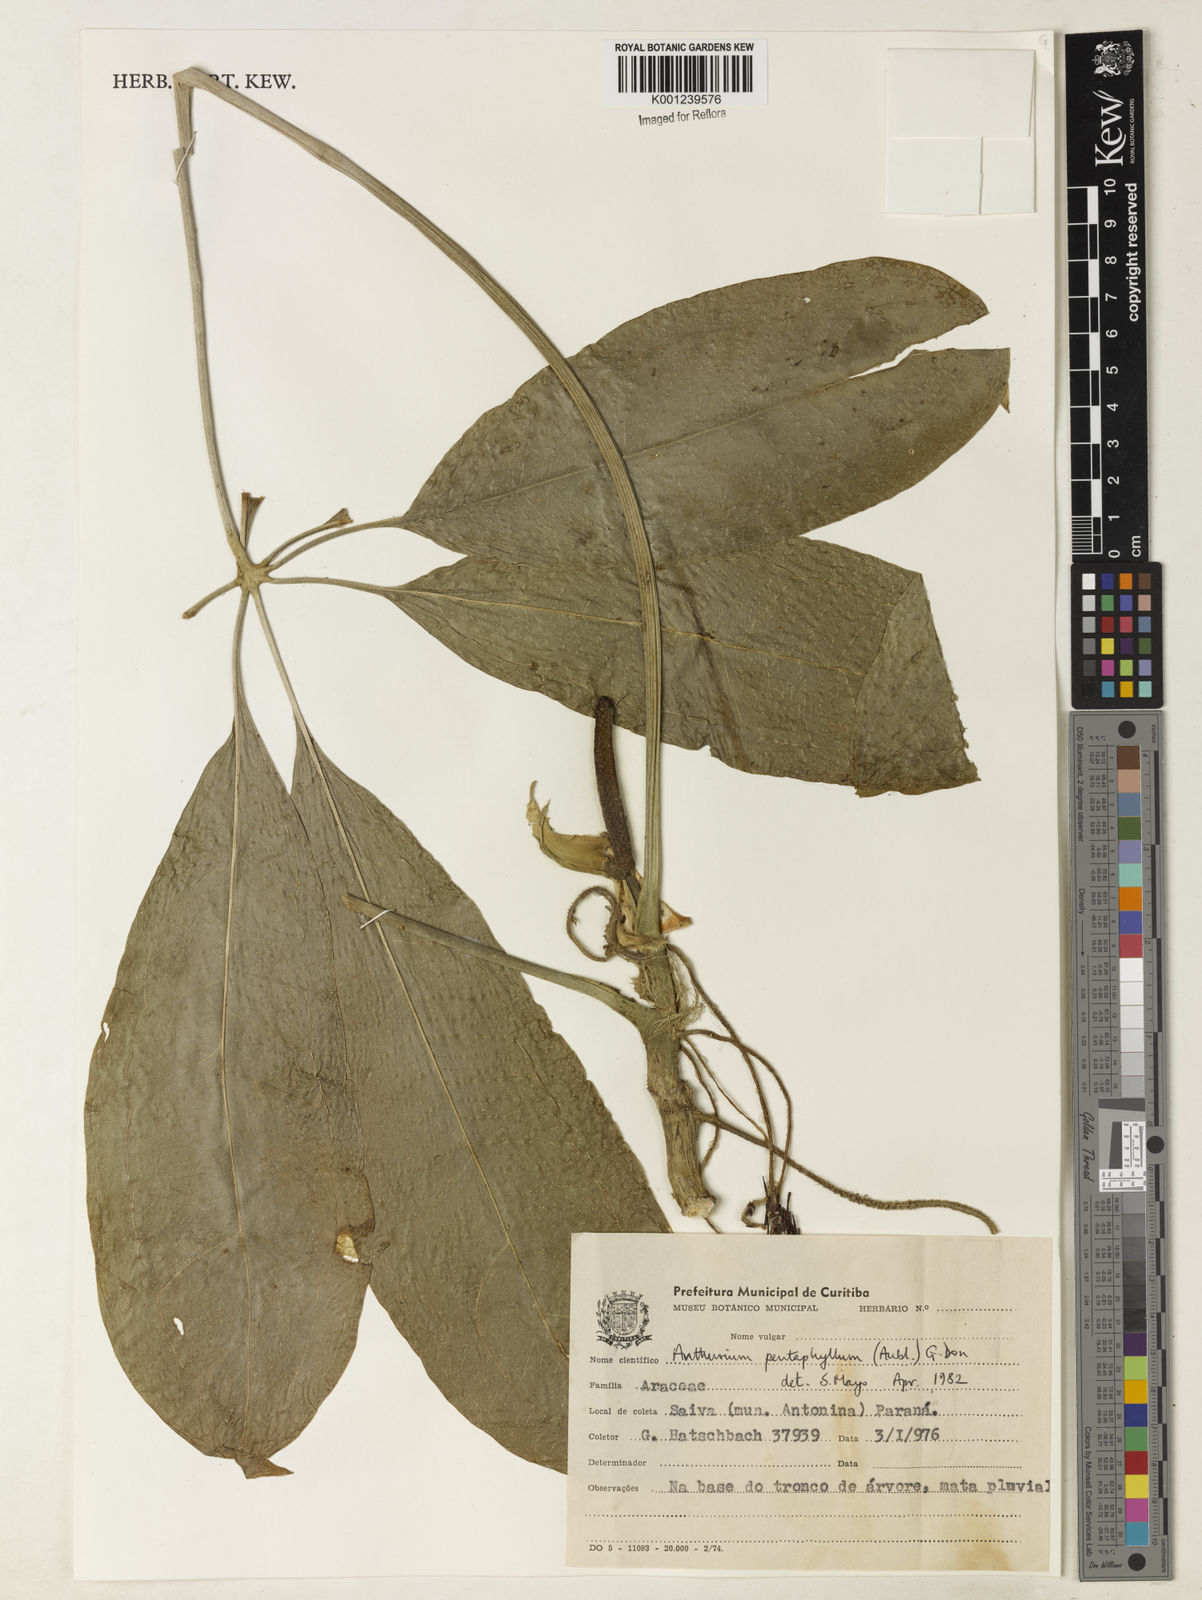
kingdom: Plantae
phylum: Tracheophyta
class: Liliopsida
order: Alismatales
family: Araceae
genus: Anthurium
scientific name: Anthurium pentaphyllum
